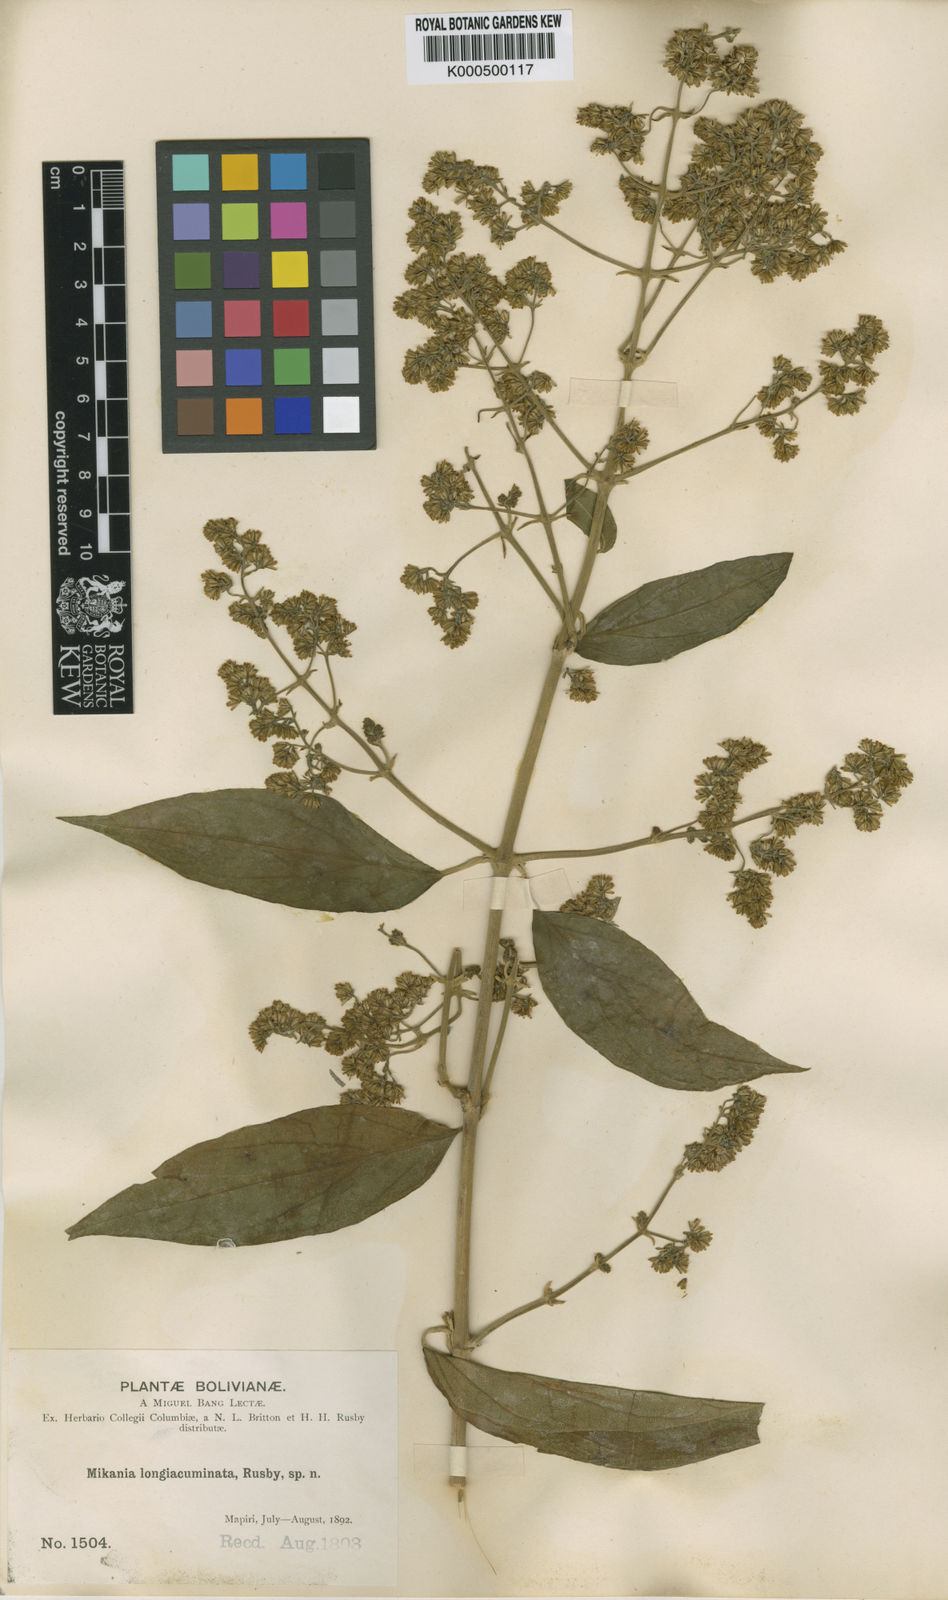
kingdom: Plantae
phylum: Tracheophyta
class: Magnoliopsida
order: Asterales
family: Asteraceae
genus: Mikania
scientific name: Mikania longiacuminata
